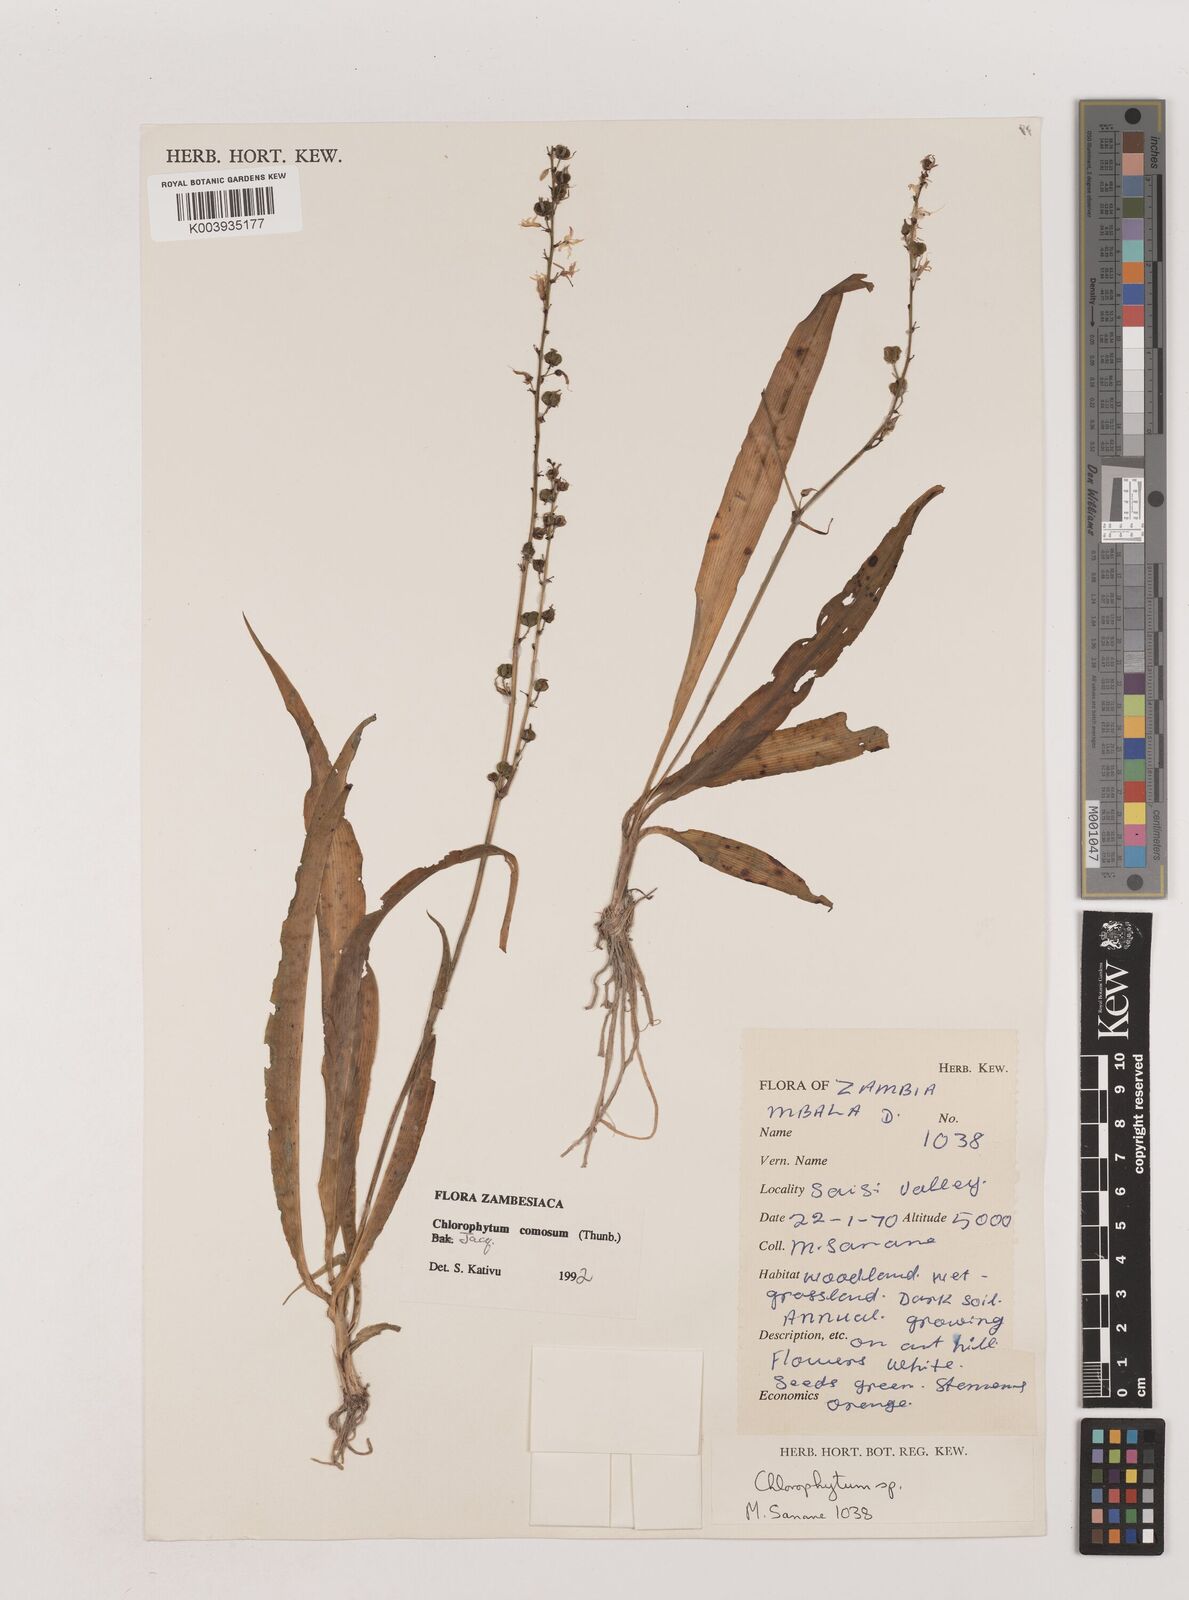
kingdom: Plantae
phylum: Tracheophyta
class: Liliopsida
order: Asparagales
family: Asparagaceae
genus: Chlorophytum
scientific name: Chlorophytum comosum
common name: Spider plant
